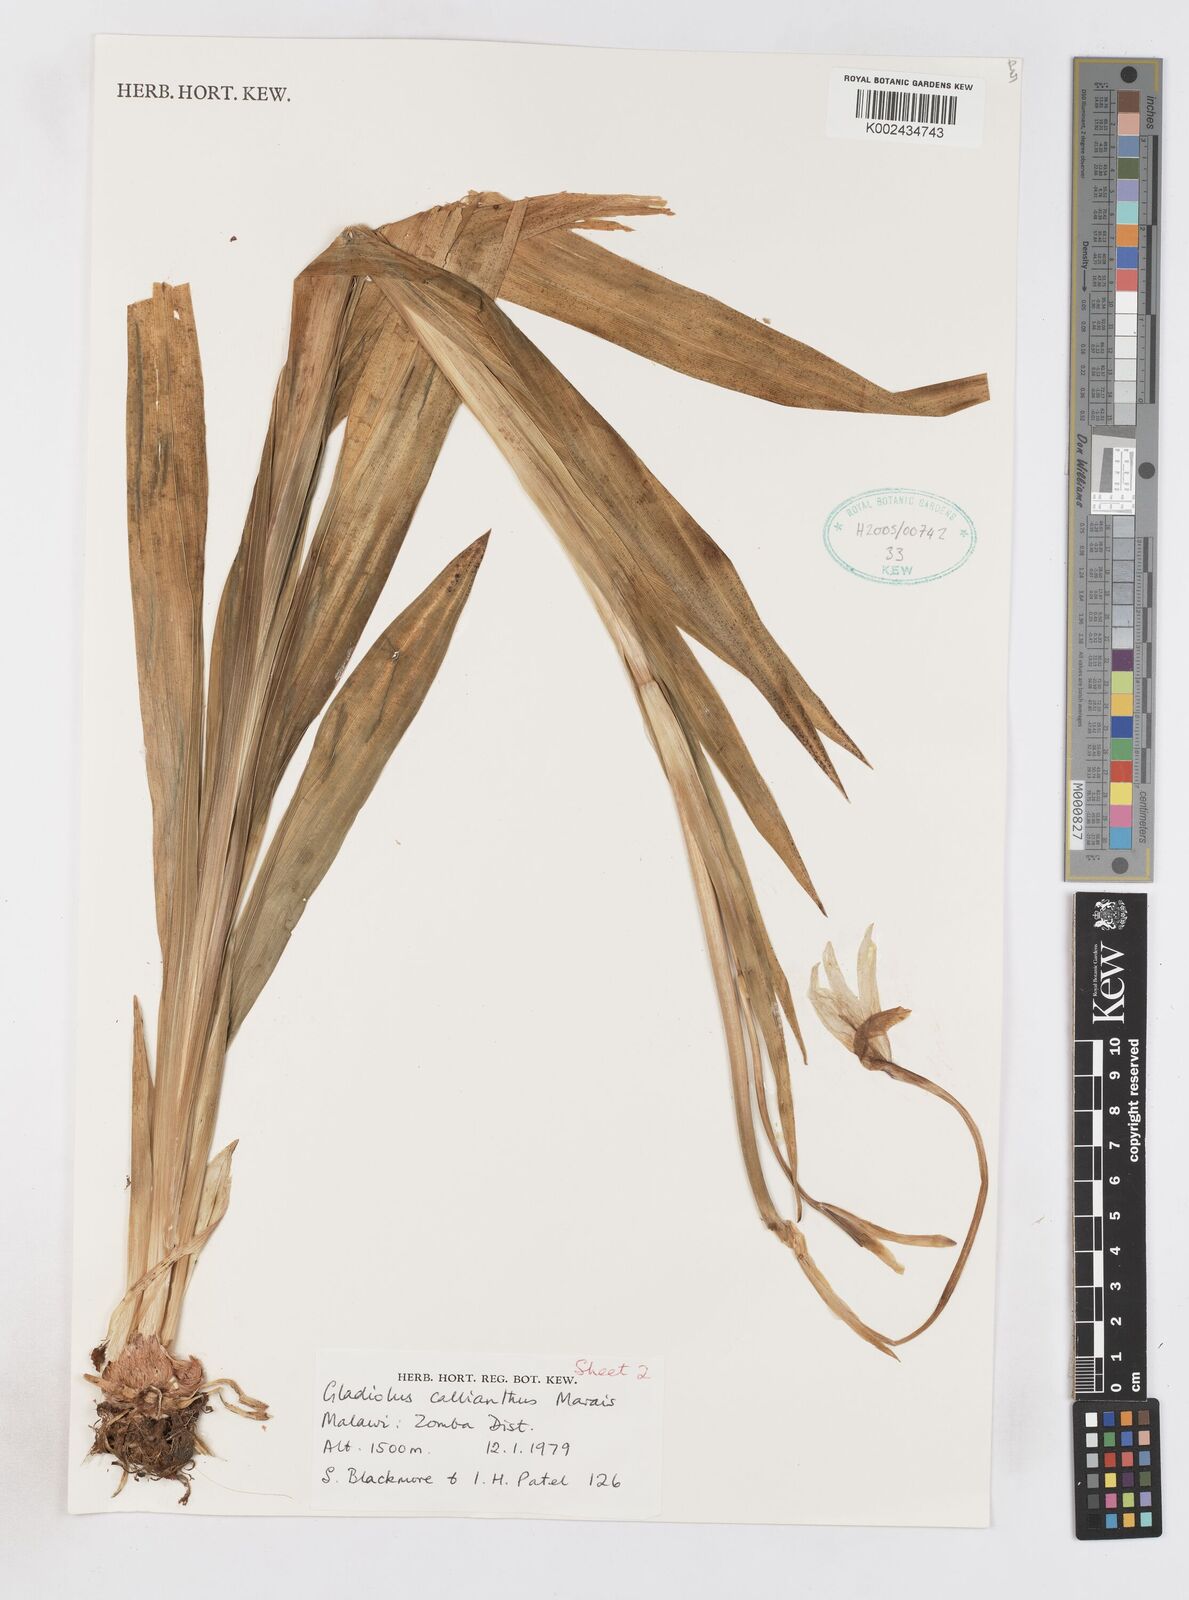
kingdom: Plantae
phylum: Tracheophyta
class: Liliopsida
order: Asparagales
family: Iridaceae
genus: Gladiolus
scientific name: Gladiolus murielae
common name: Acidanthera
